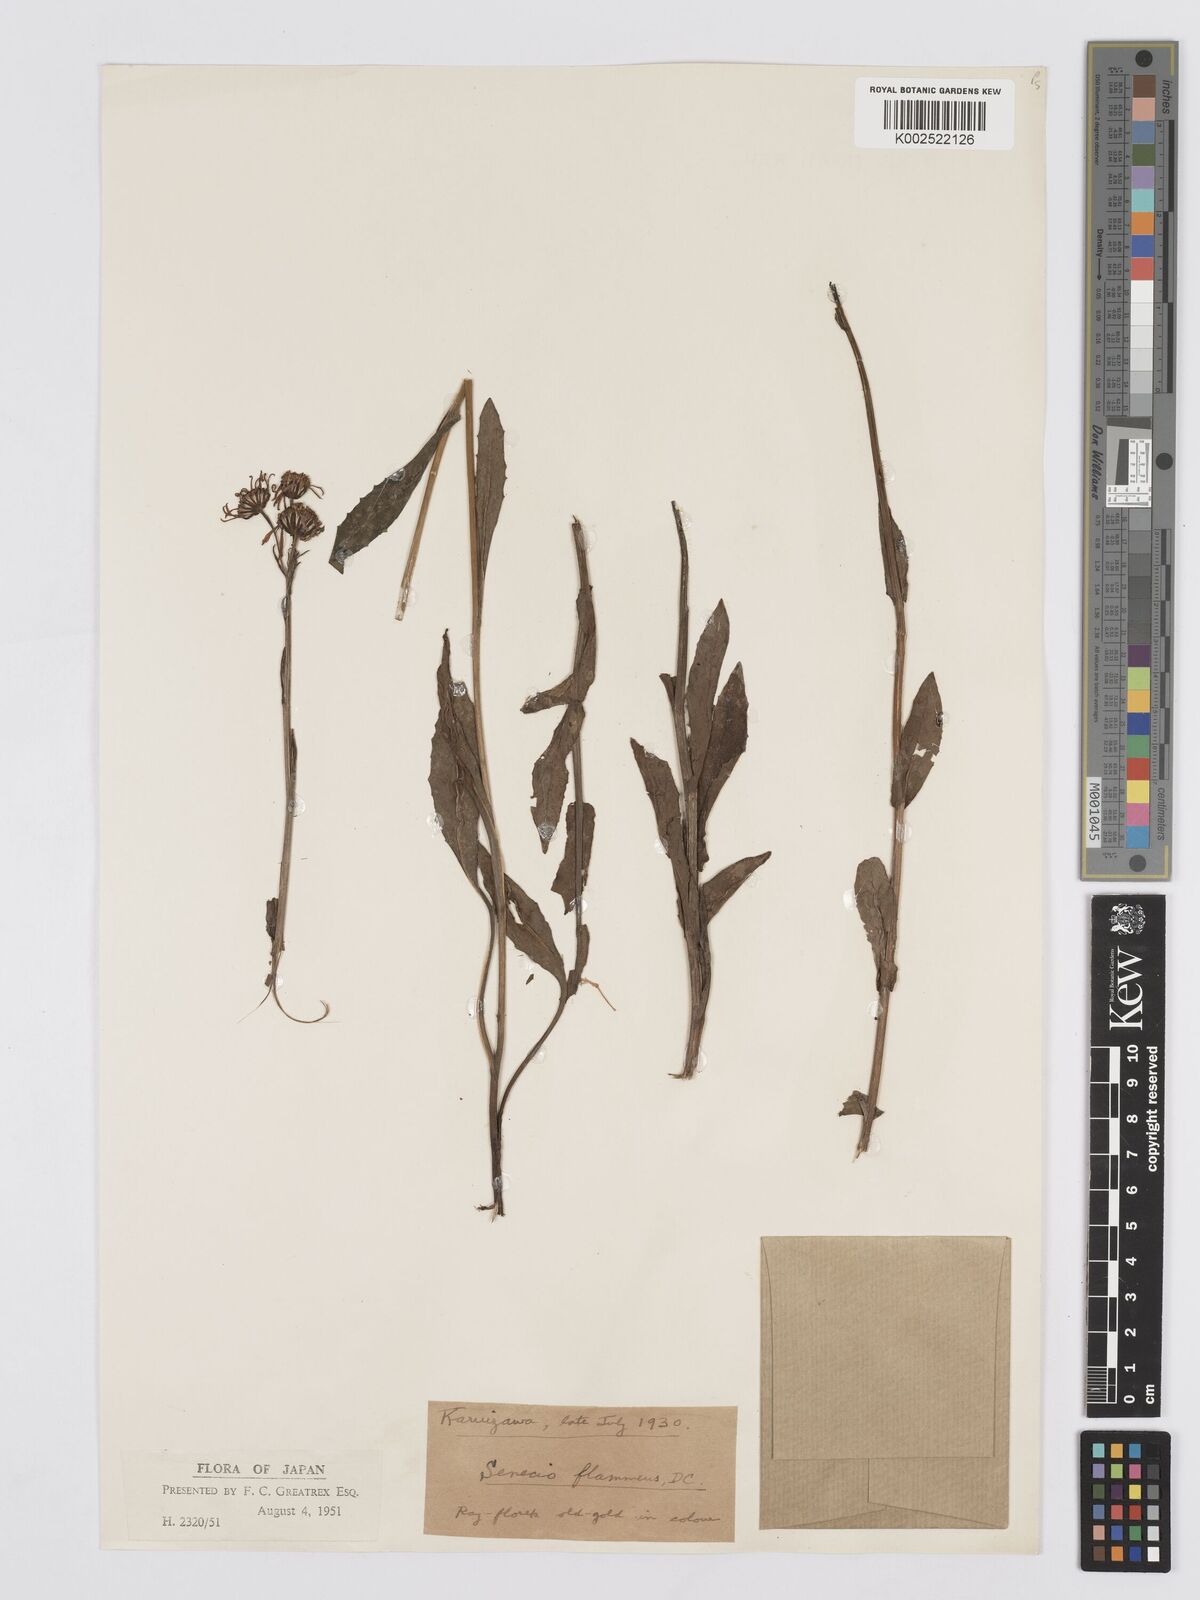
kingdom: Plantae
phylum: Tracheophyta
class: Magnoliopsida
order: Asterales
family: Asteraceae
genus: Tephroseris
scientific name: Tephroseris flammea
